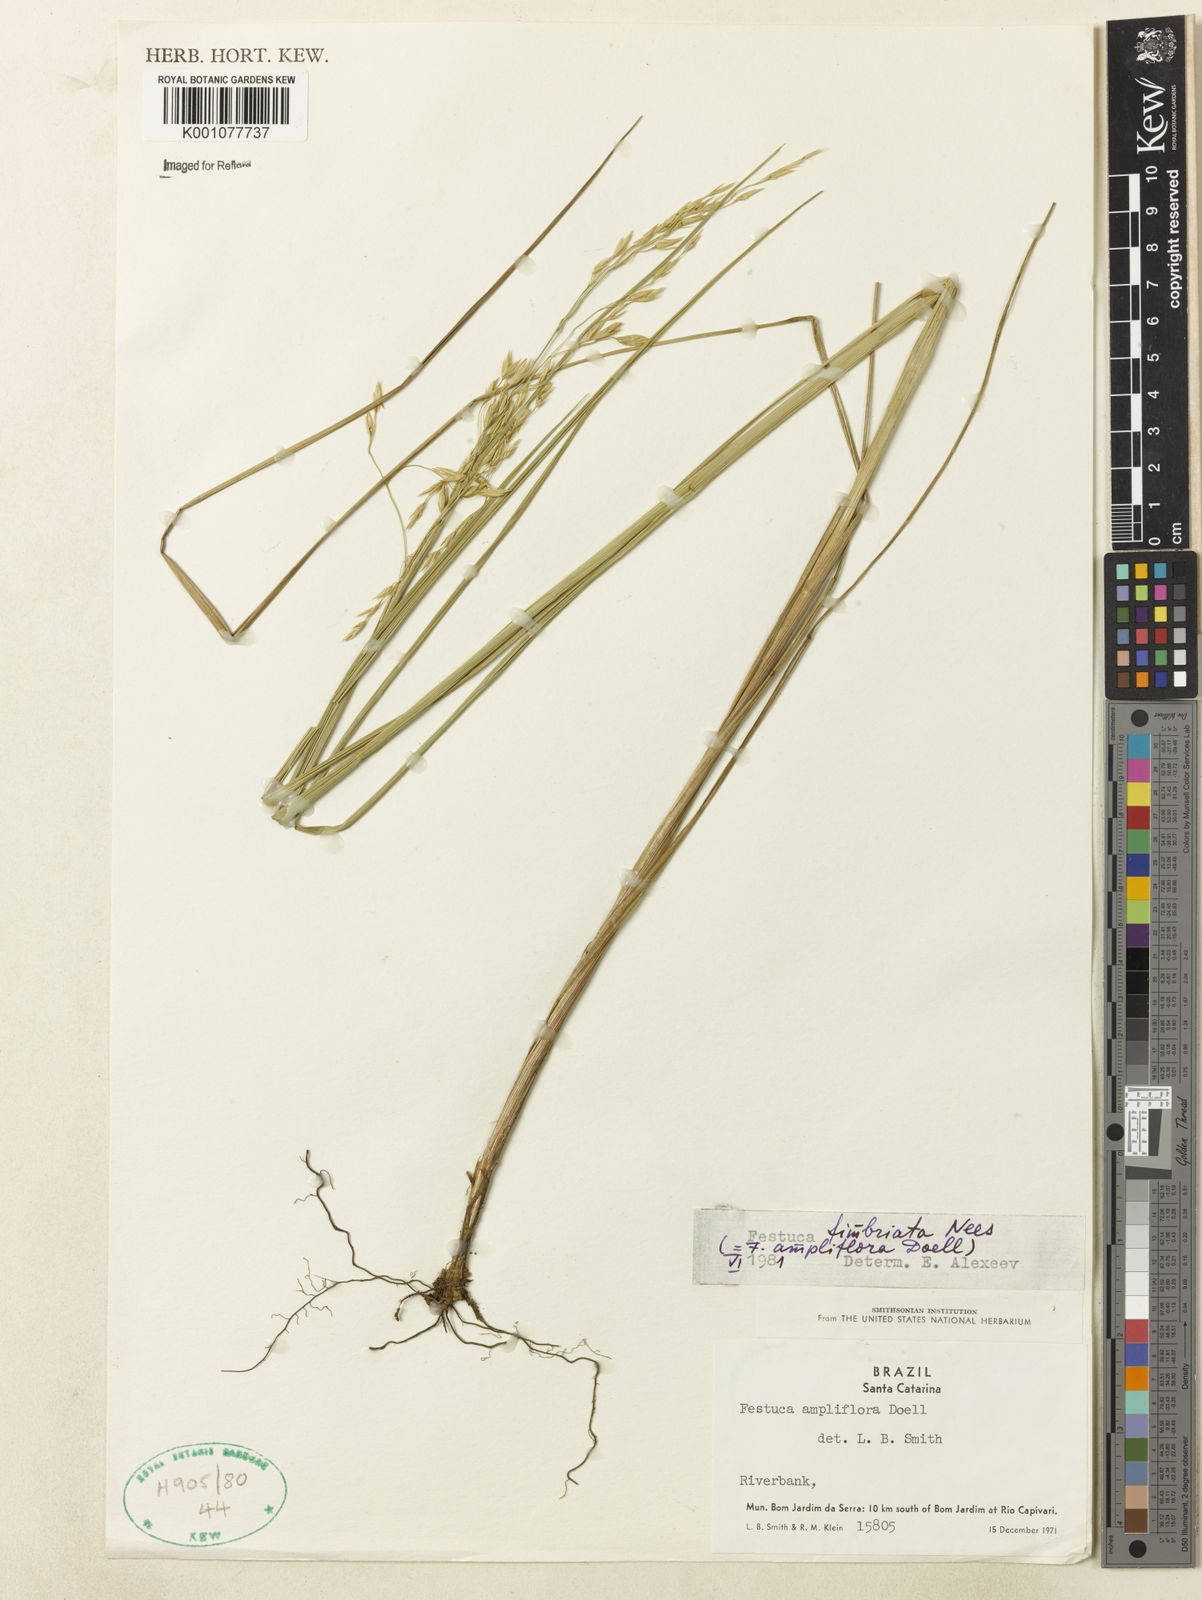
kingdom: Plantae
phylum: Tracheophyta
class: Liliopsida
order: Poales
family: Poaceae
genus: Festuca
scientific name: Festuca fimbriata
